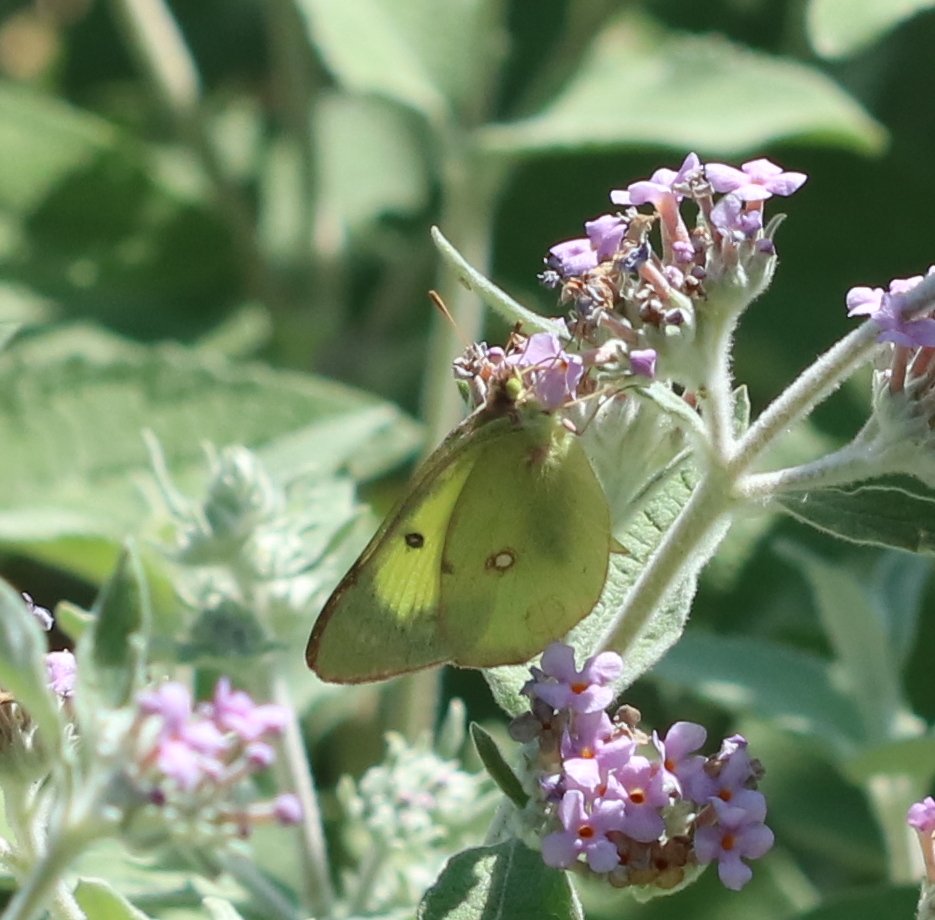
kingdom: Animalia
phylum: Arthropoda
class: Insecta
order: Lepidoptera
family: Pieridae
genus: Colias
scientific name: Colias philodice
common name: Clouded Sulphur
